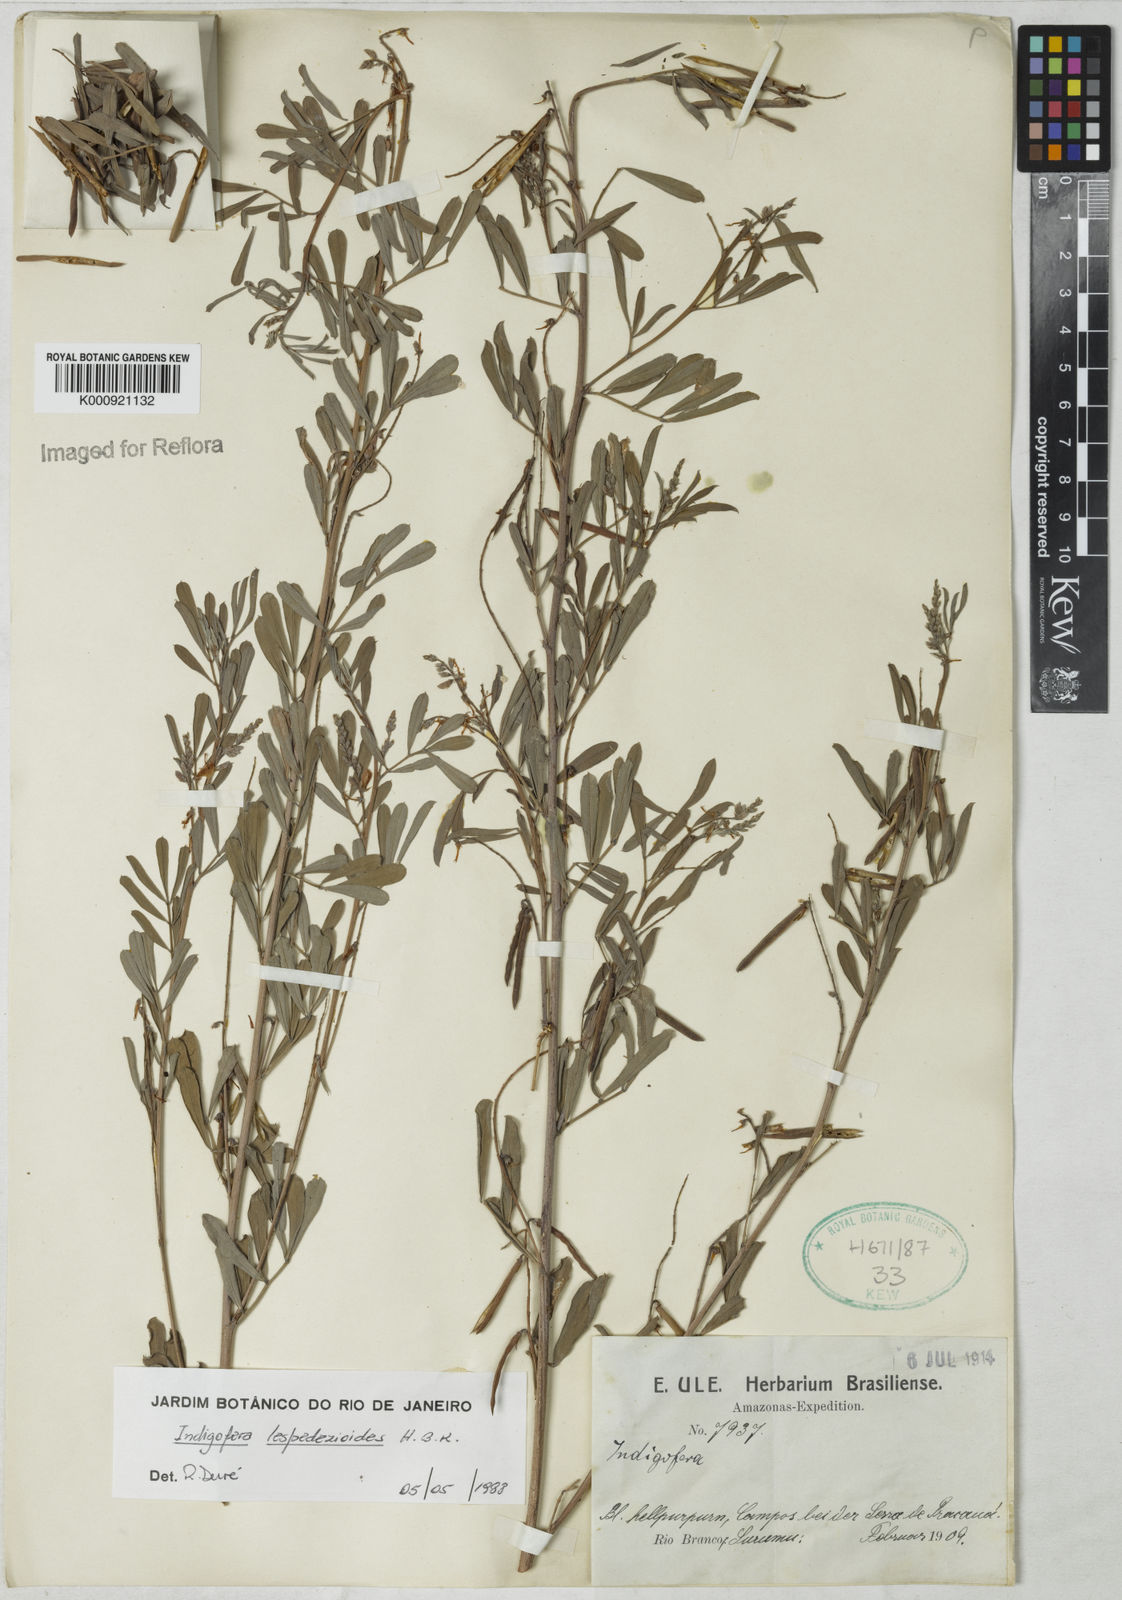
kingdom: Plantae
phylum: Tracheophyta
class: Magnoliopsida
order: Fabales
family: Fabaceae
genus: Indigofera
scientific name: Indigofera lespedezioides
